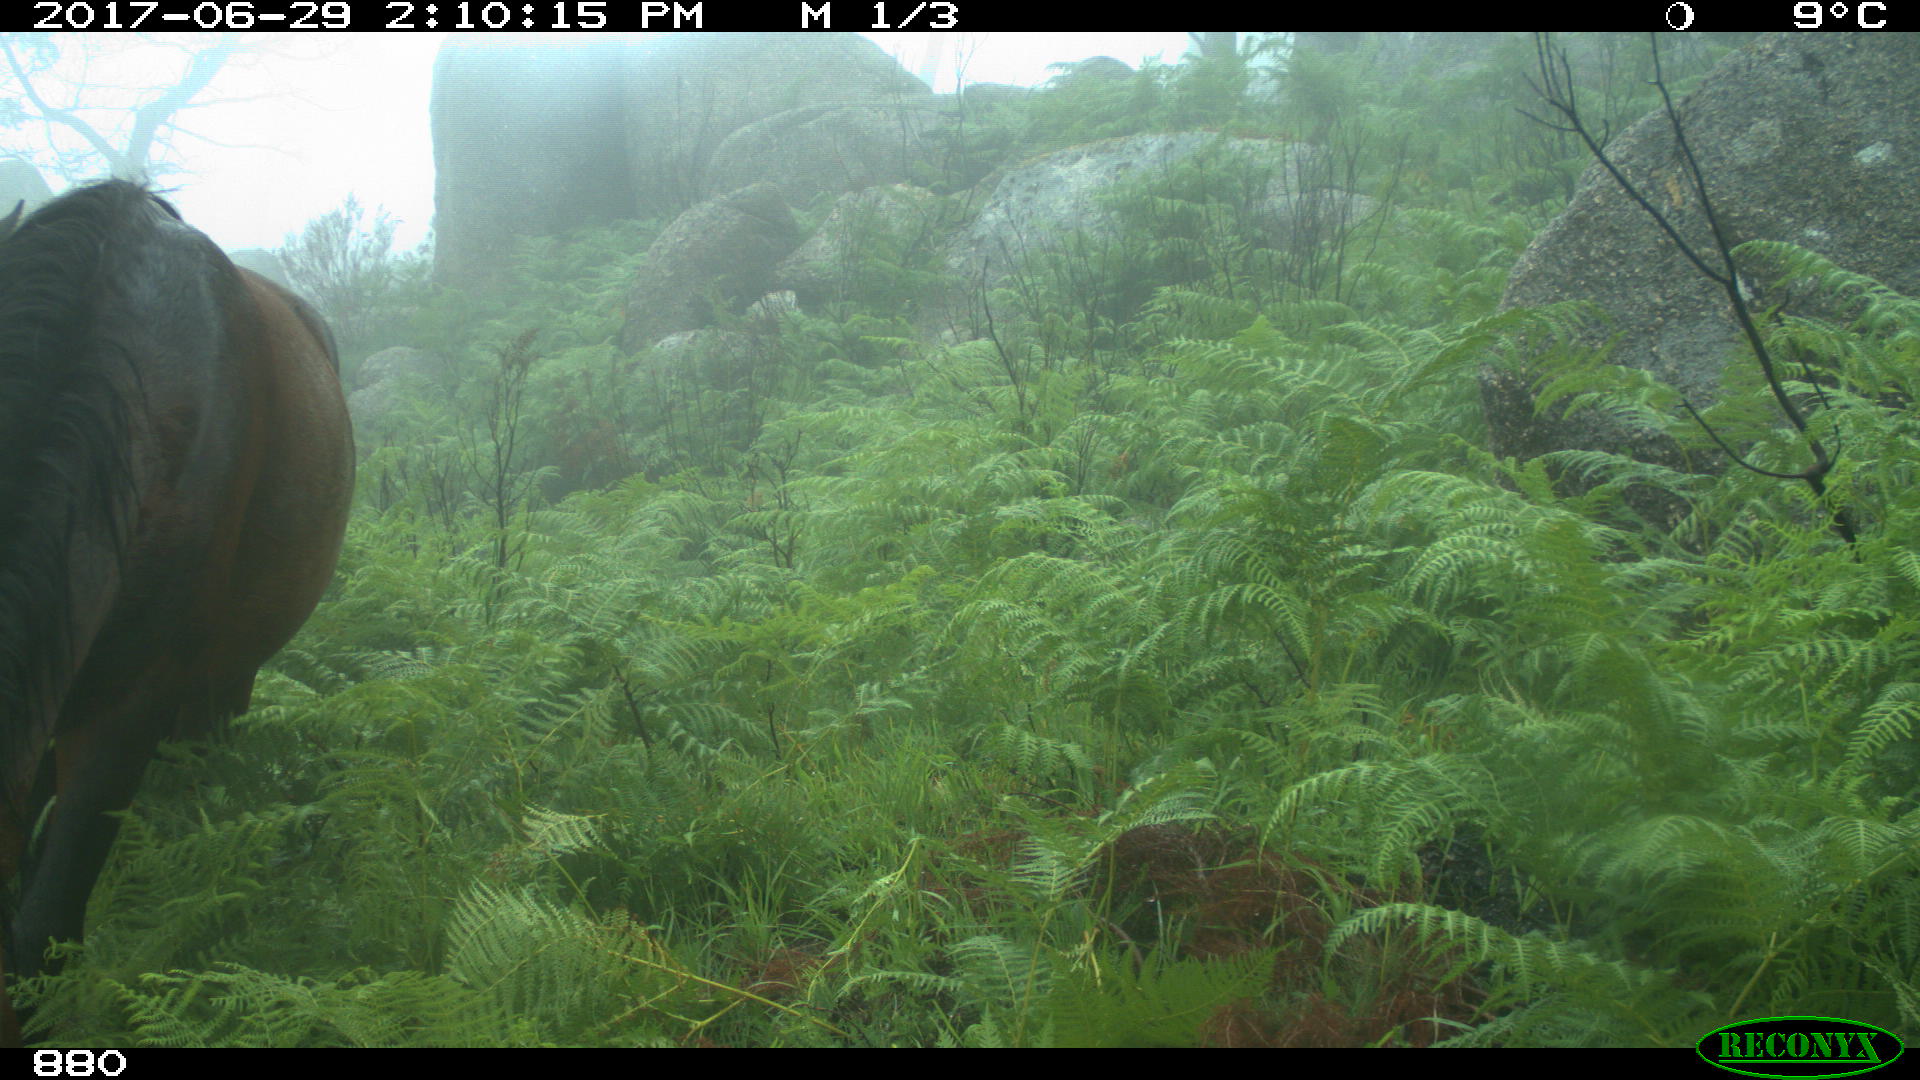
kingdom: Animalia
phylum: Chordata
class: Mammalia
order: Perissodactyla
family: Equidae
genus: Equus
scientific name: Equus caballus
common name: Horse
